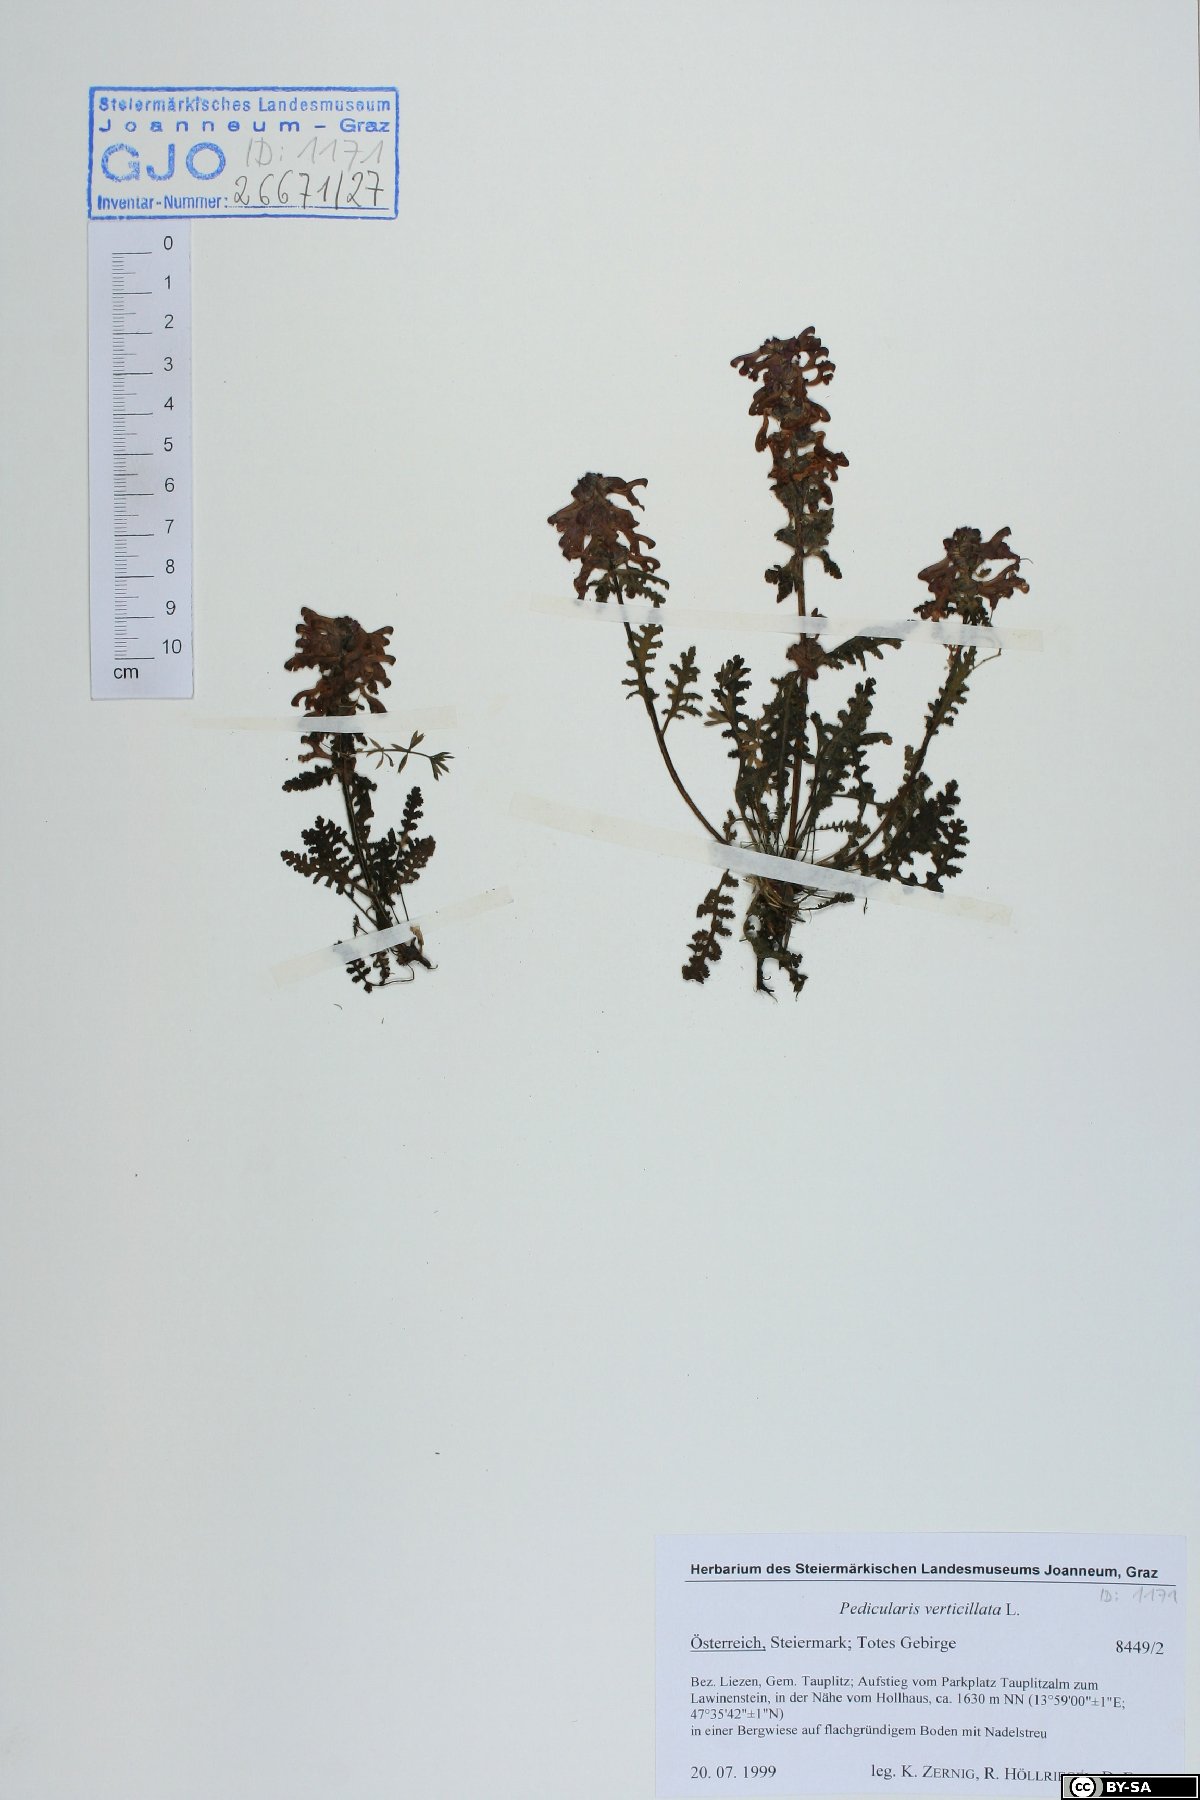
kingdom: Plantae
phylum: Tracheophyta
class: Magnoliopsida
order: Lamiales
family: Orobanchaceae
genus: Pedicularis
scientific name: Pedicularis verticillata
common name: Whorled lousewort
